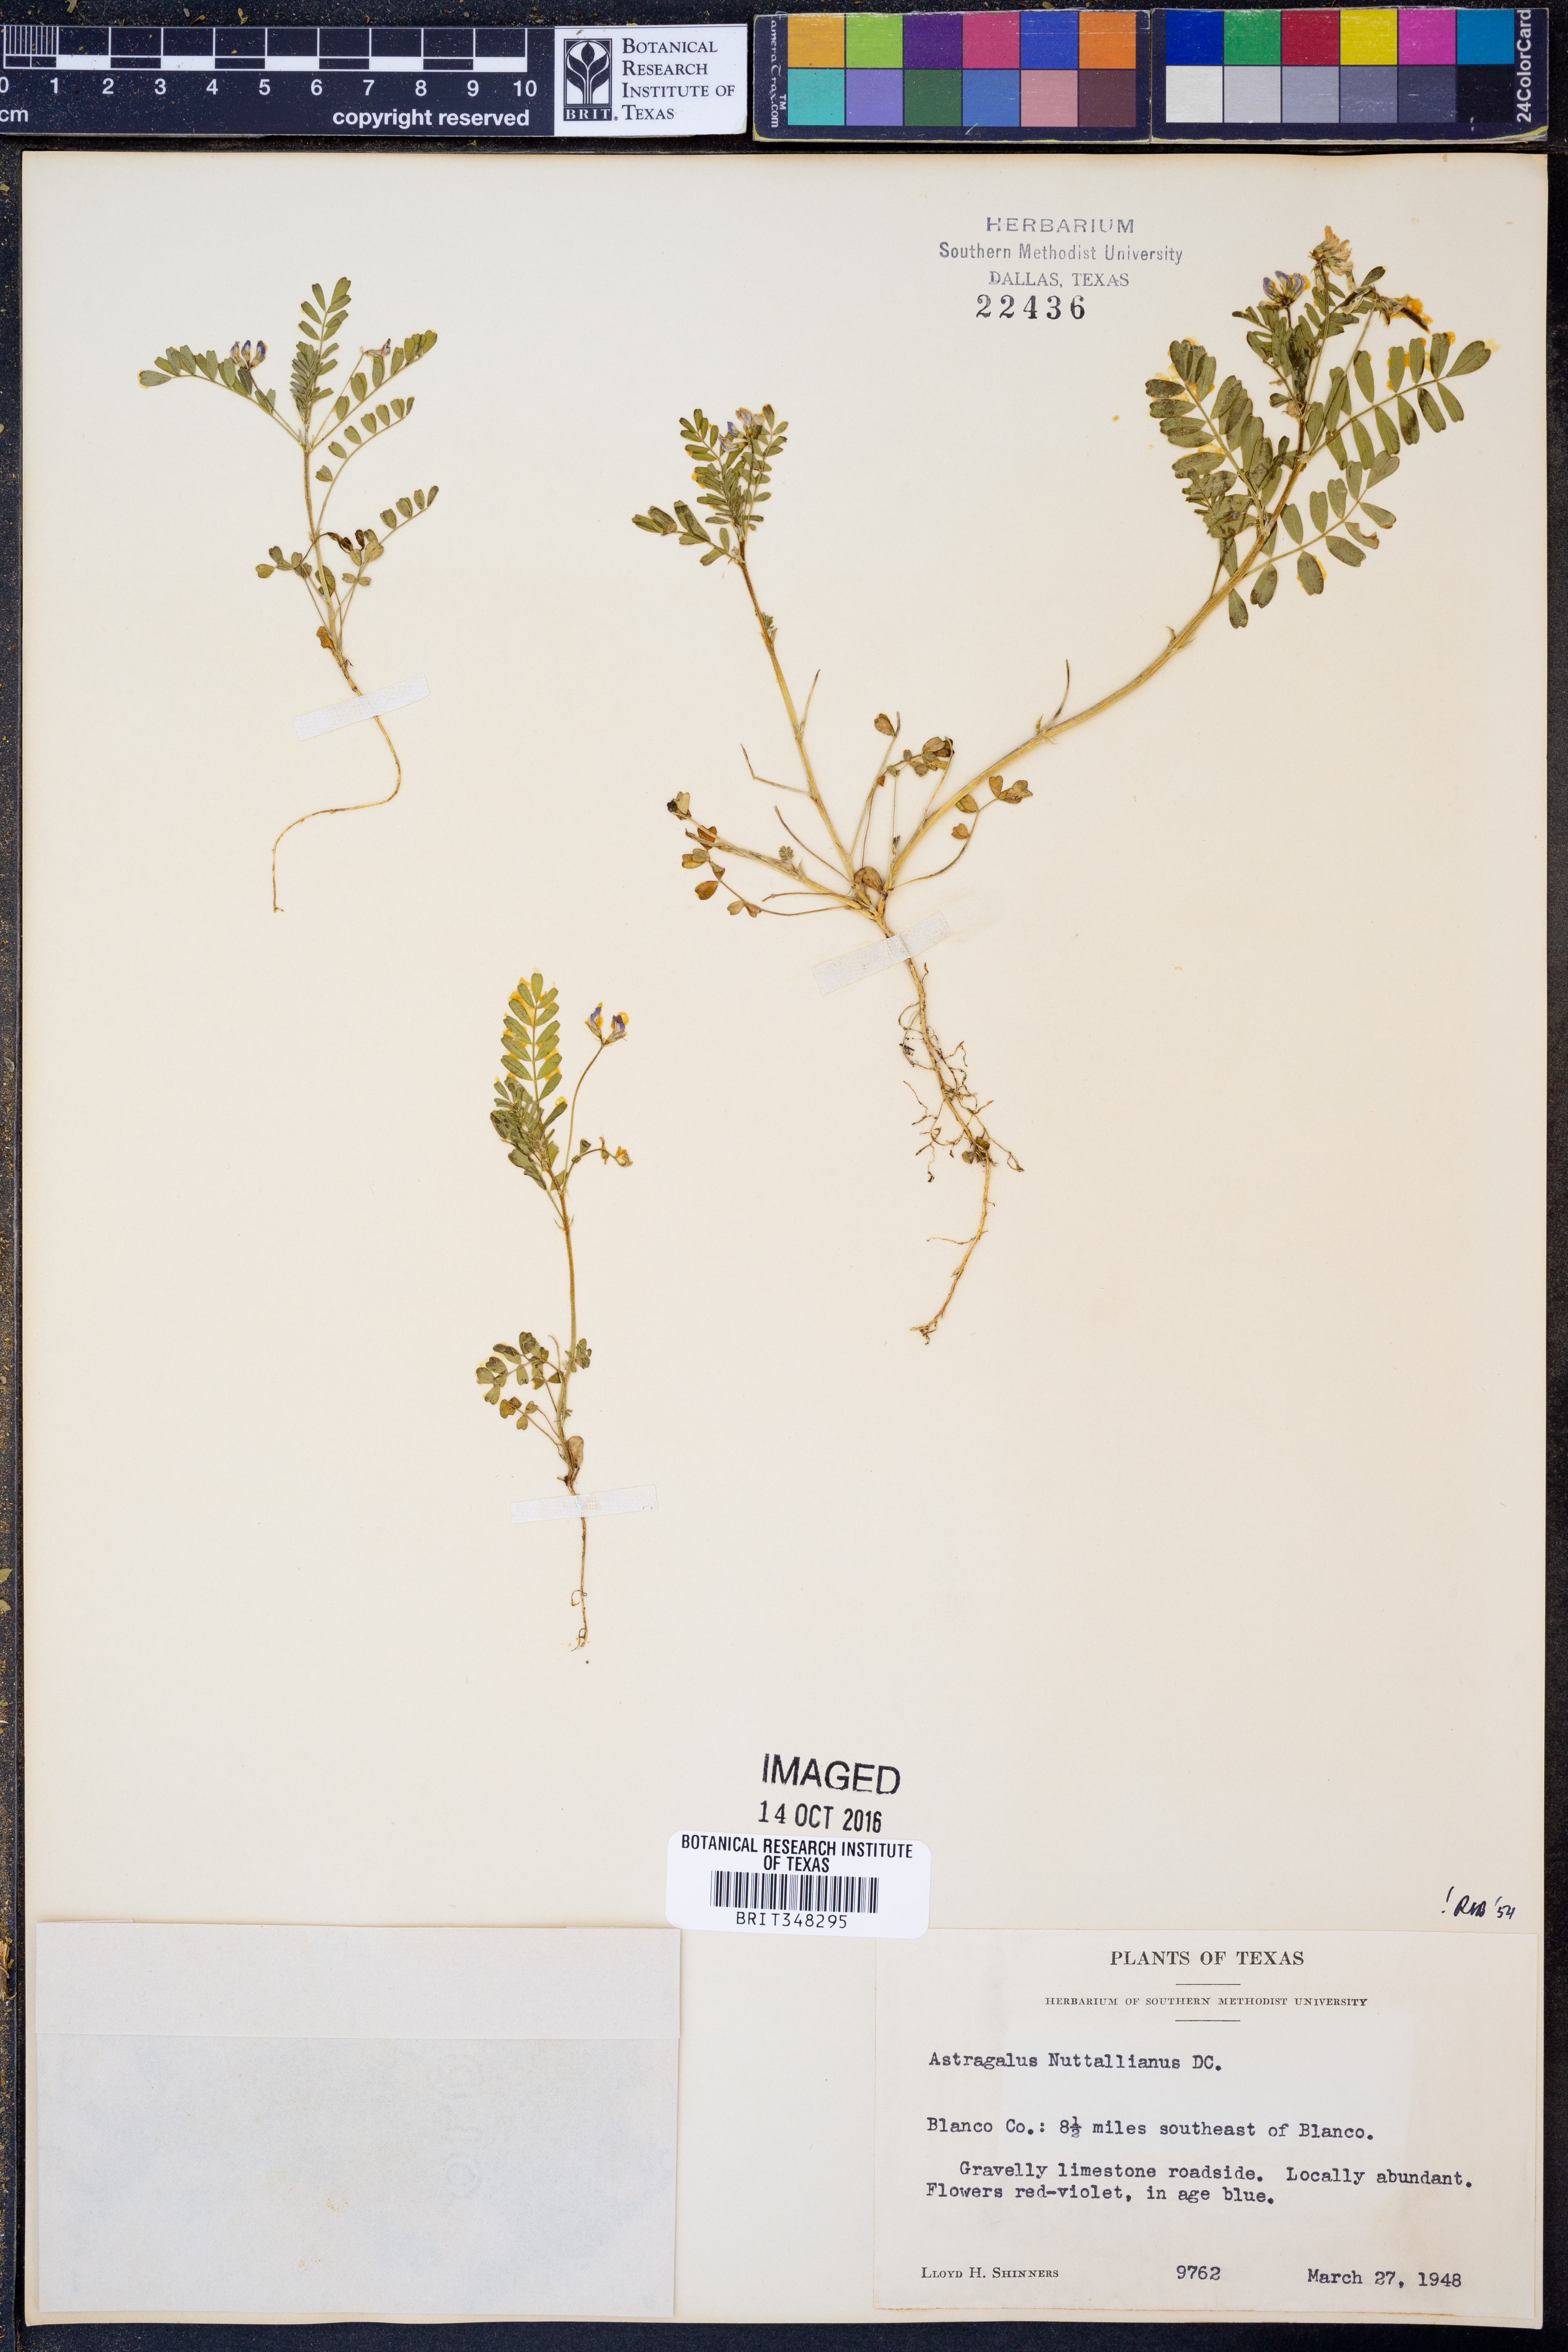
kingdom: Plantae
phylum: Tracheophyta
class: Magnoliopsida
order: Fabales
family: Fabaceae
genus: Astragalus
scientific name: Astragalus nuttallianus
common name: Smallflowered milkvetch
